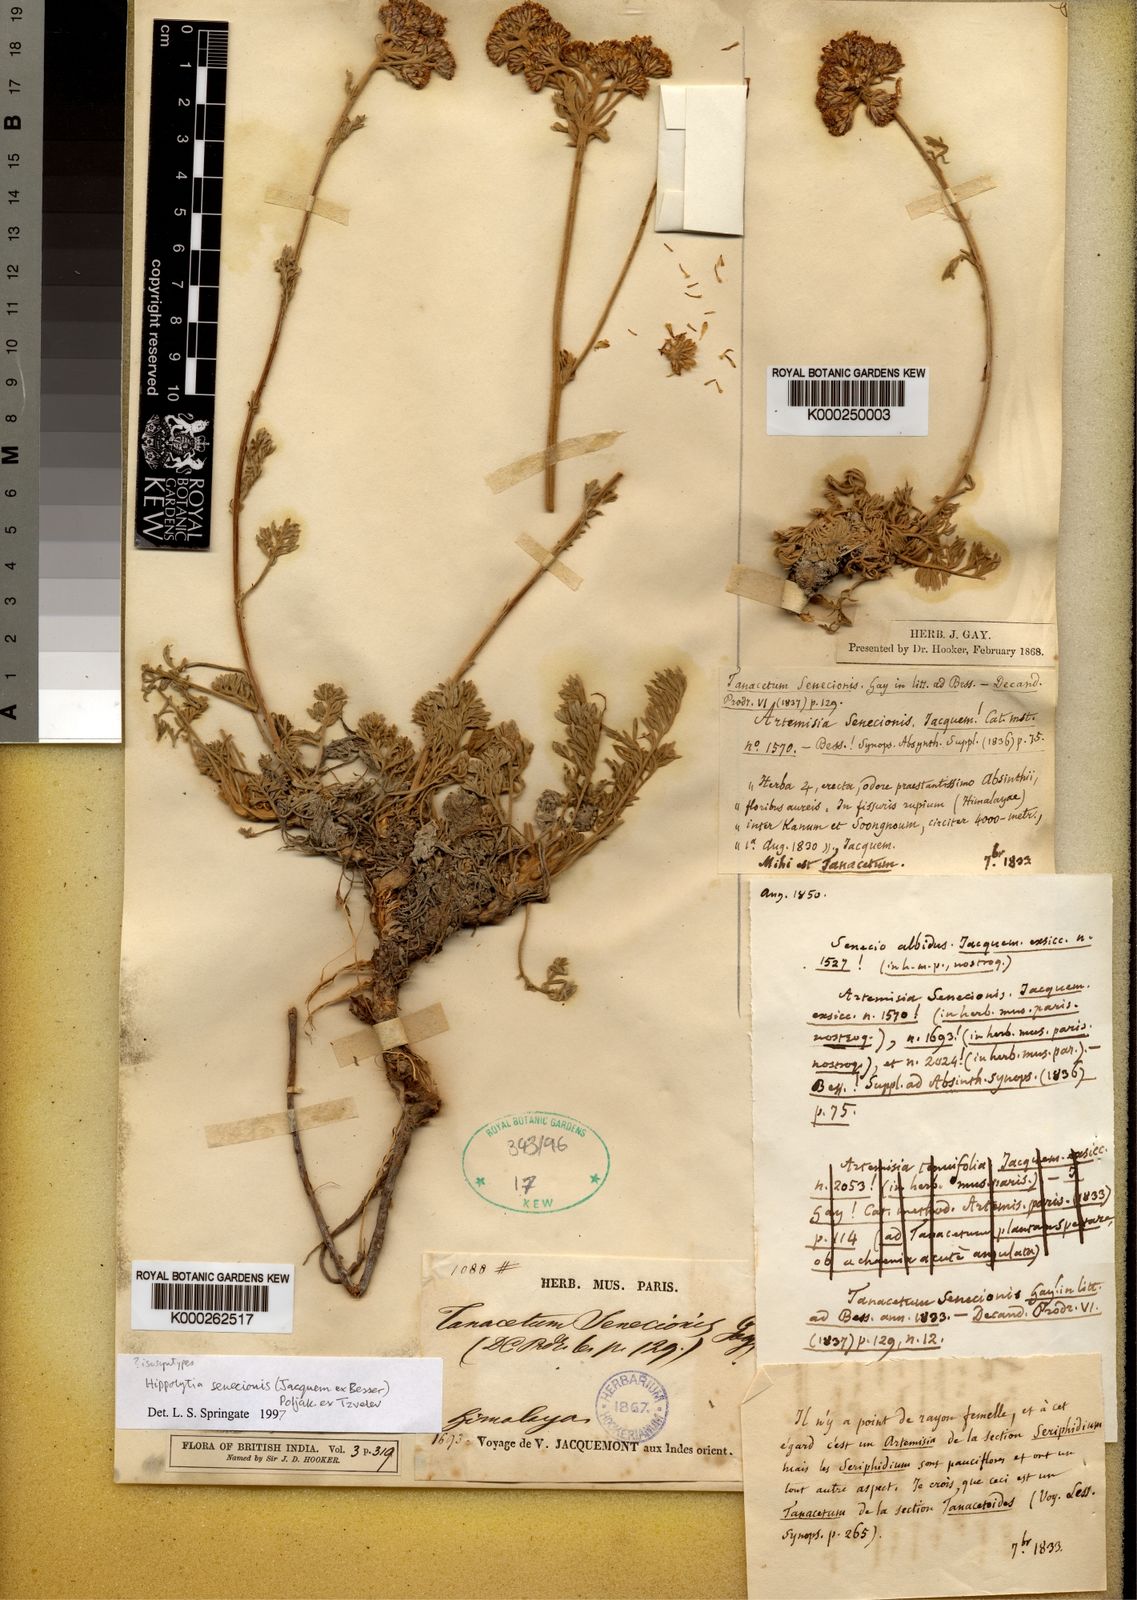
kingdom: Plantae
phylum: Tracheophyta
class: Magnoliopsida
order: Asterales
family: Asteraceae
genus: Hippolytia
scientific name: Hippolytia
